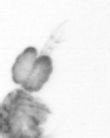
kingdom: Animalia
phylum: Arthropoda
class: Copepoda
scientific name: Copepoda
